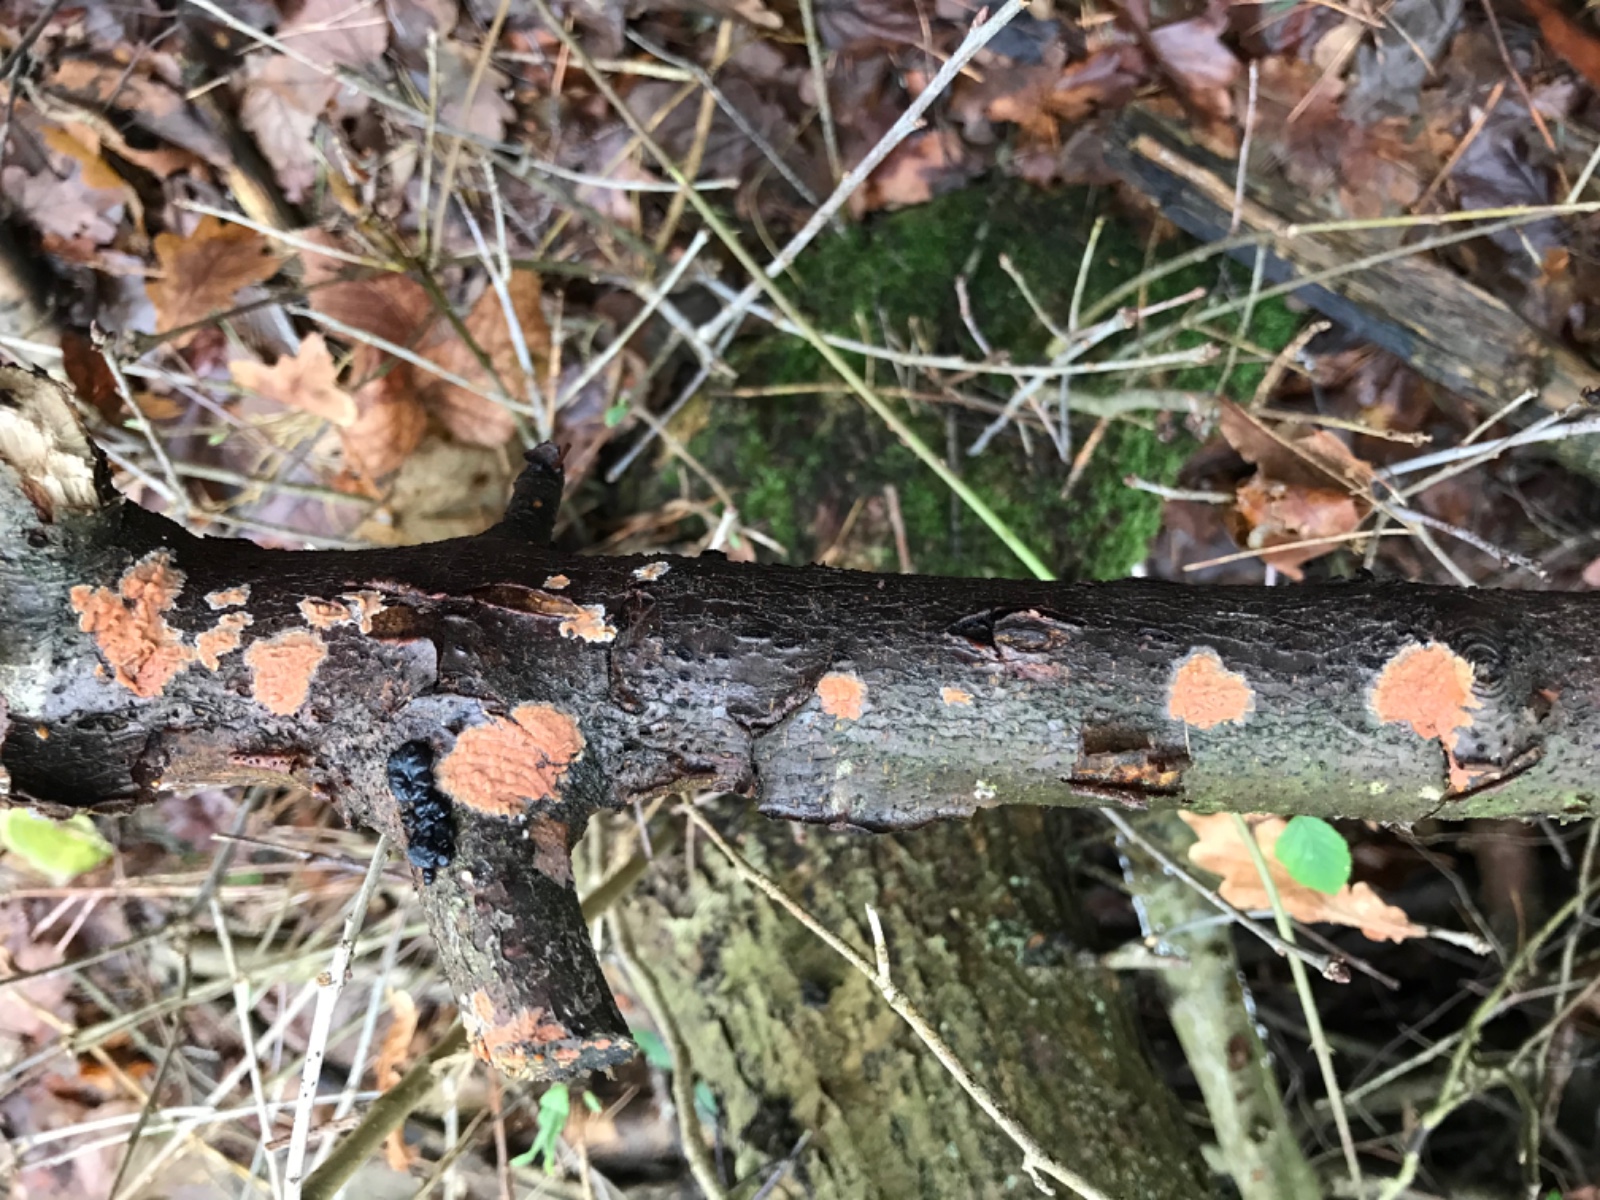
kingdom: Fungi
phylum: Basidiomycota
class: Agaricomycetes
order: Russulales
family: Peniophoraceae
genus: Peniophora
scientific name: Peniophora incarnata
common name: laksefarvet voksskind
